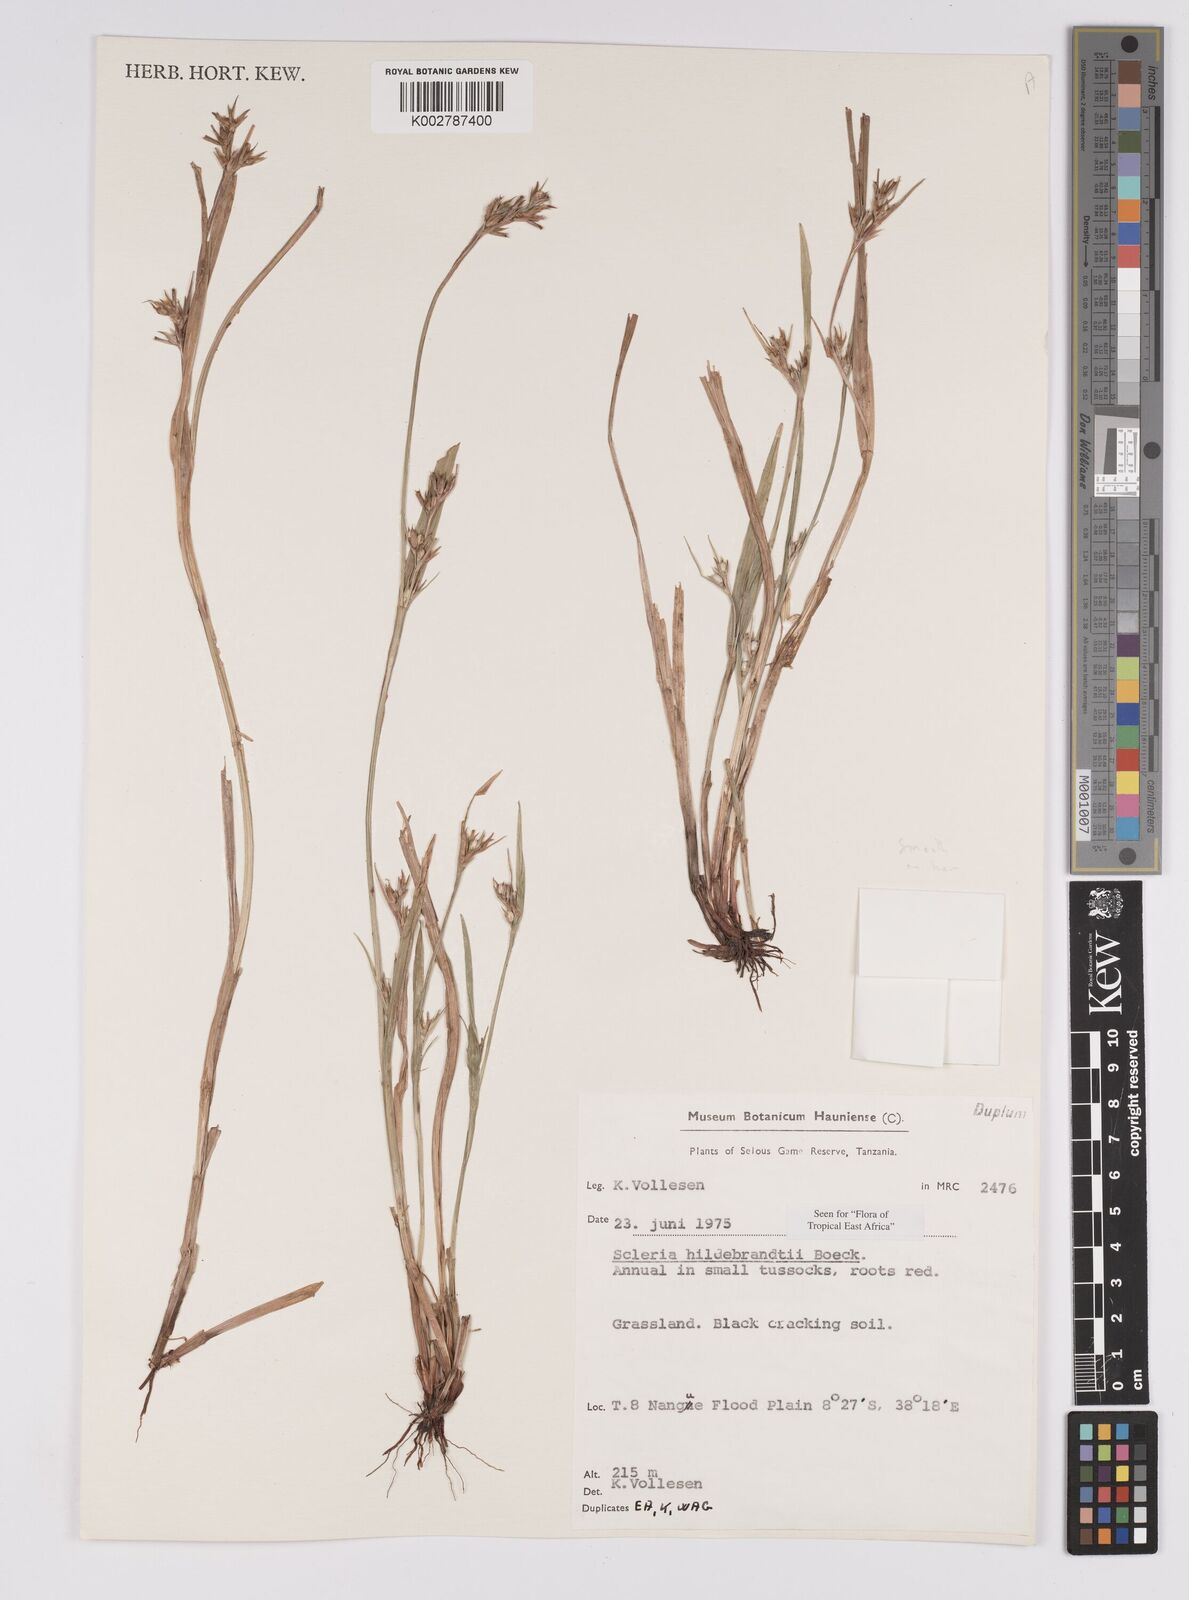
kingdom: Plantae
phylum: Tracheophyta
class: Liliopsida
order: Poales
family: Cyperaceae
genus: Scleria
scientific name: Scleria hildebrandtii
